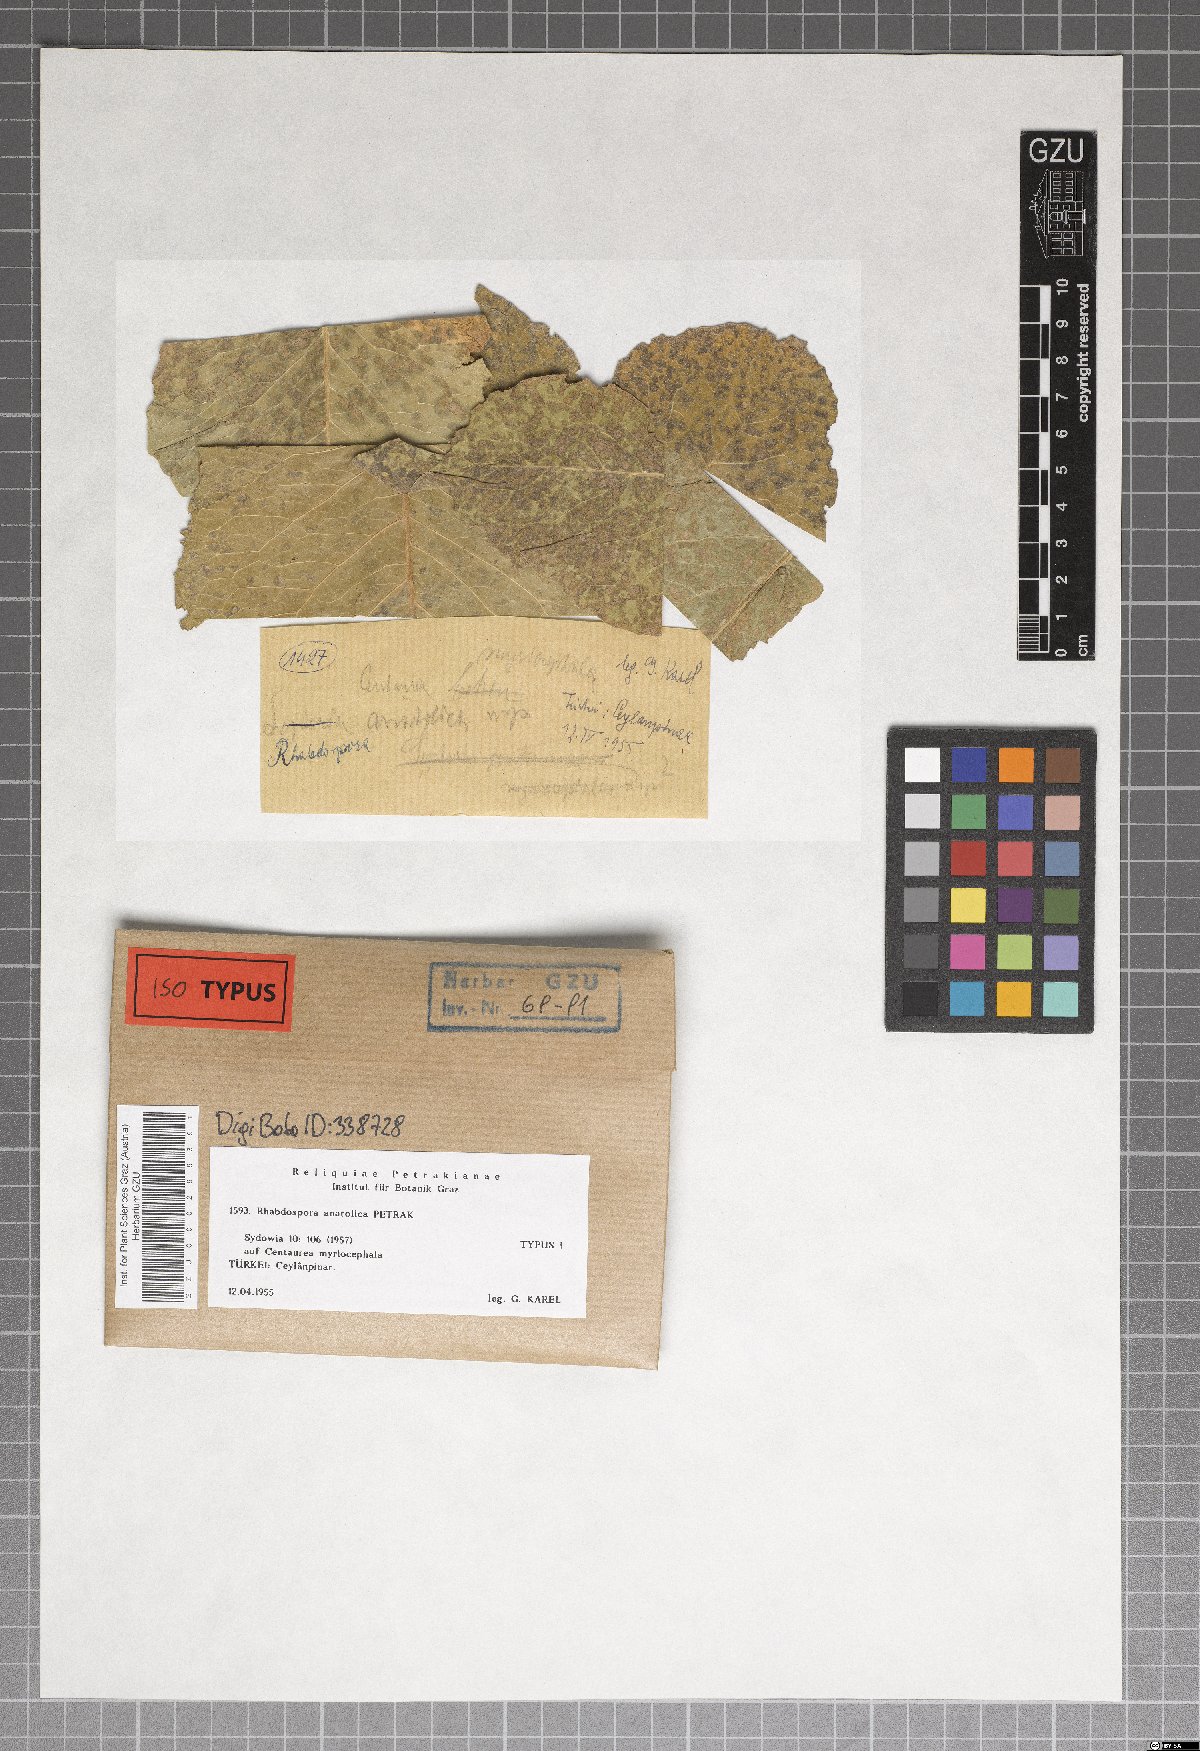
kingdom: Fungi
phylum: Ascomycota
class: Dothideomycetes
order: Mycosphaerellales
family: Mycosphaerellaceae
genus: Rhabdospora
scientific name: Rhabdospora anatolica
